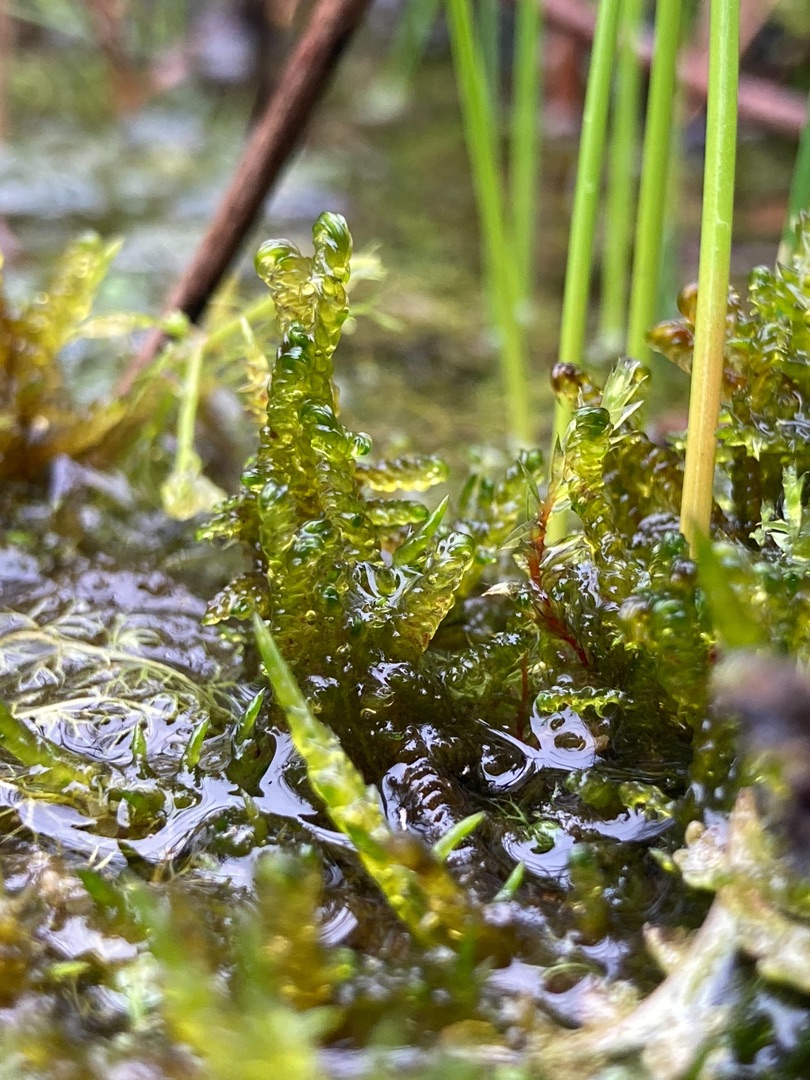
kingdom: Plantae
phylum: Bryophyta
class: Bryopsida
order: Hypnales
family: Scorpidiaceae
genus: Scorpidium
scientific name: Scorpidium cossonii
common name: Grøn krumblad
